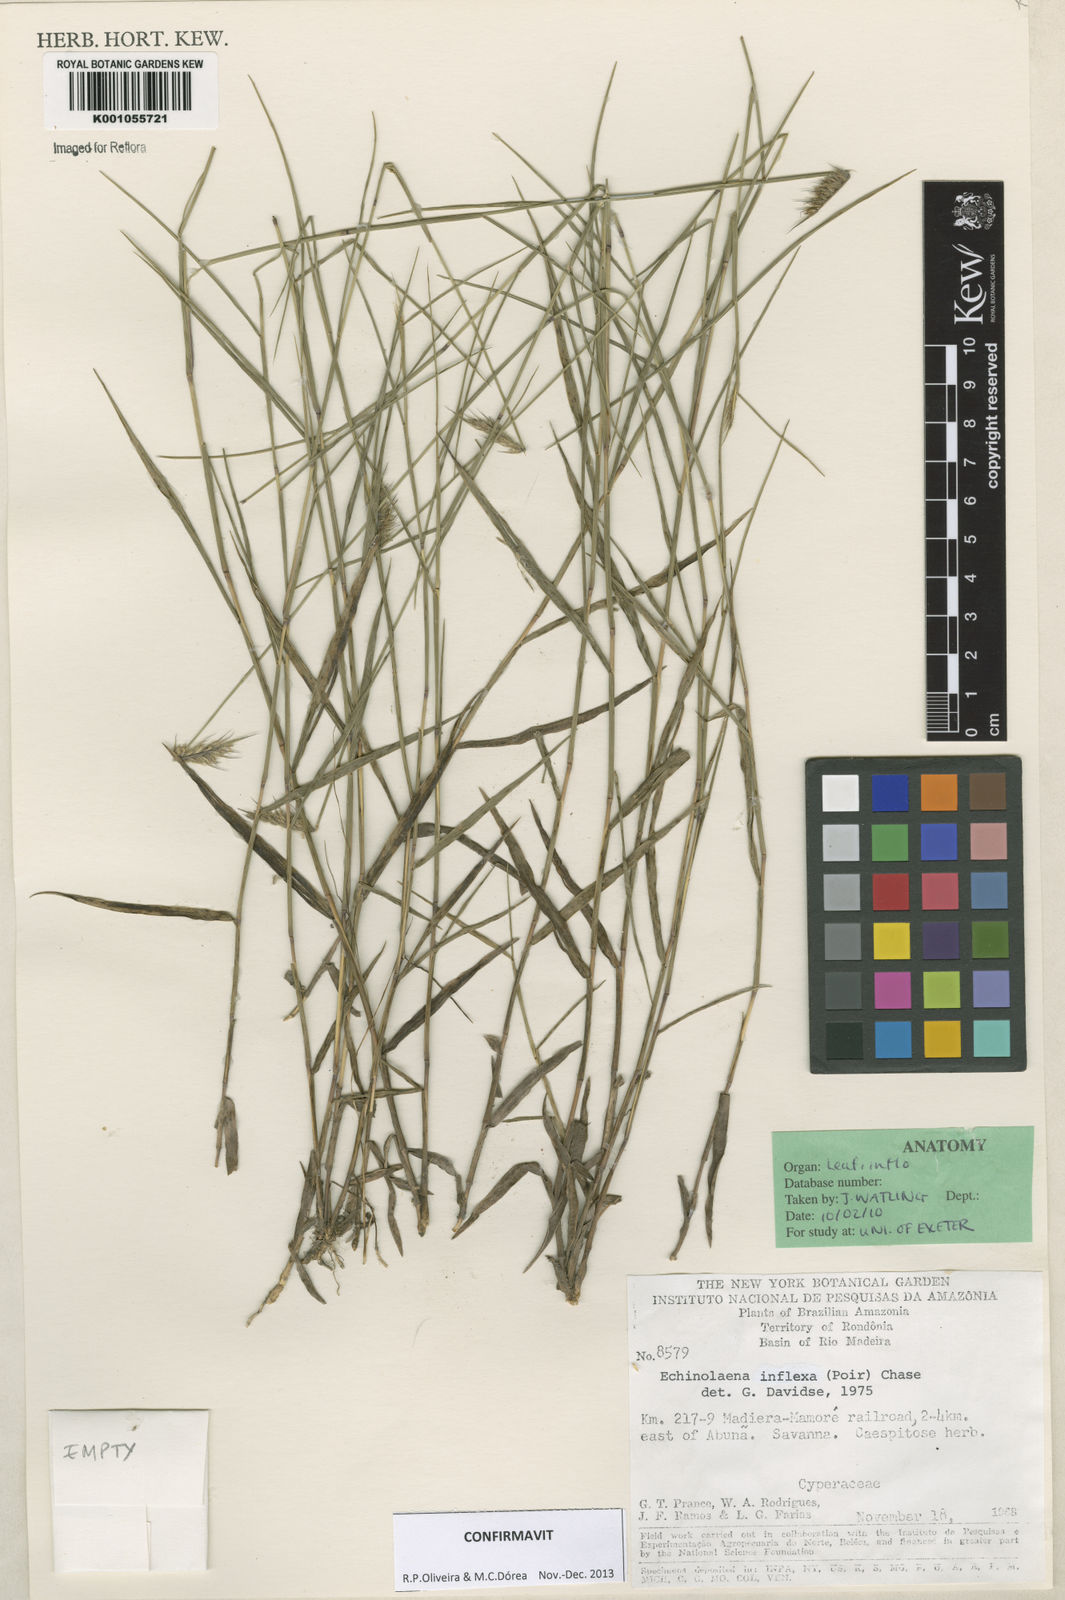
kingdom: Plantae
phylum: Tracheophyta
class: Liliopsida
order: Poales
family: Poaceae
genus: Echinolaena
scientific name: Echinolaena inflexa
